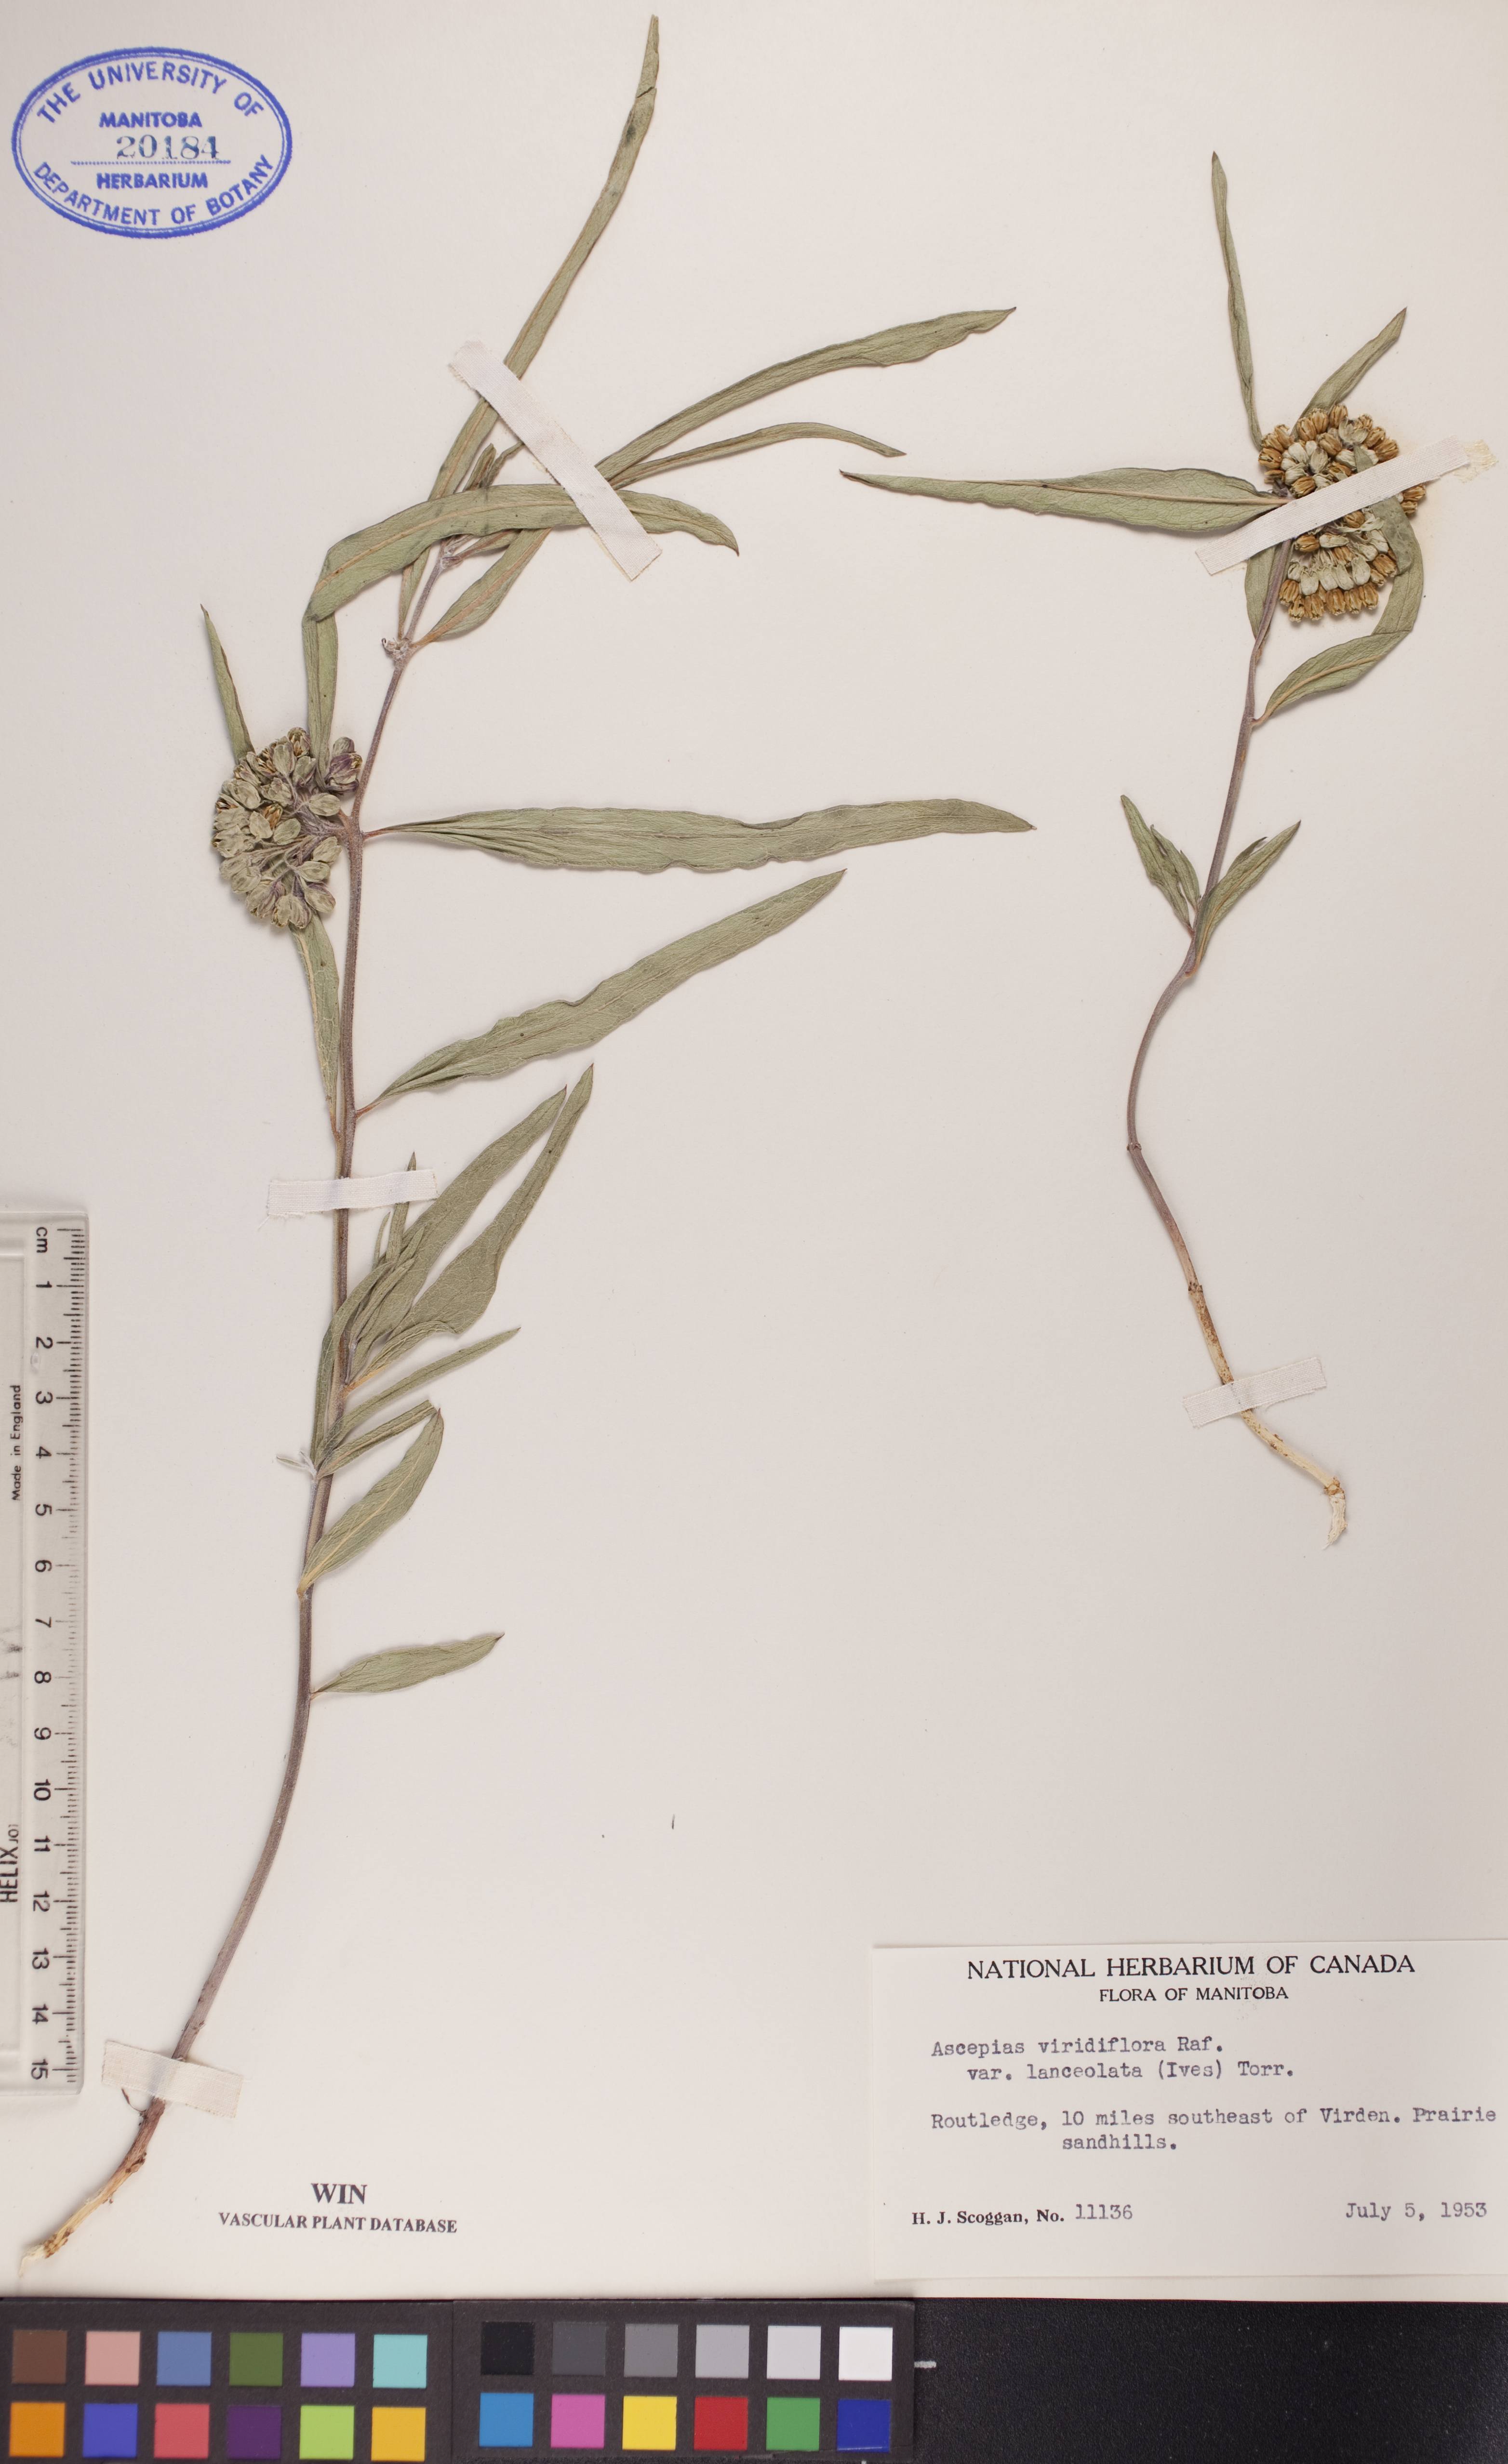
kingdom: Plantae
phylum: Tracheophyta
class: Magnoliopsida
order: Gentianales
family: Apocynaceae
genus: Asclepias
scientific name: Asclepias viridiflora
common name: Green comet milkweed
